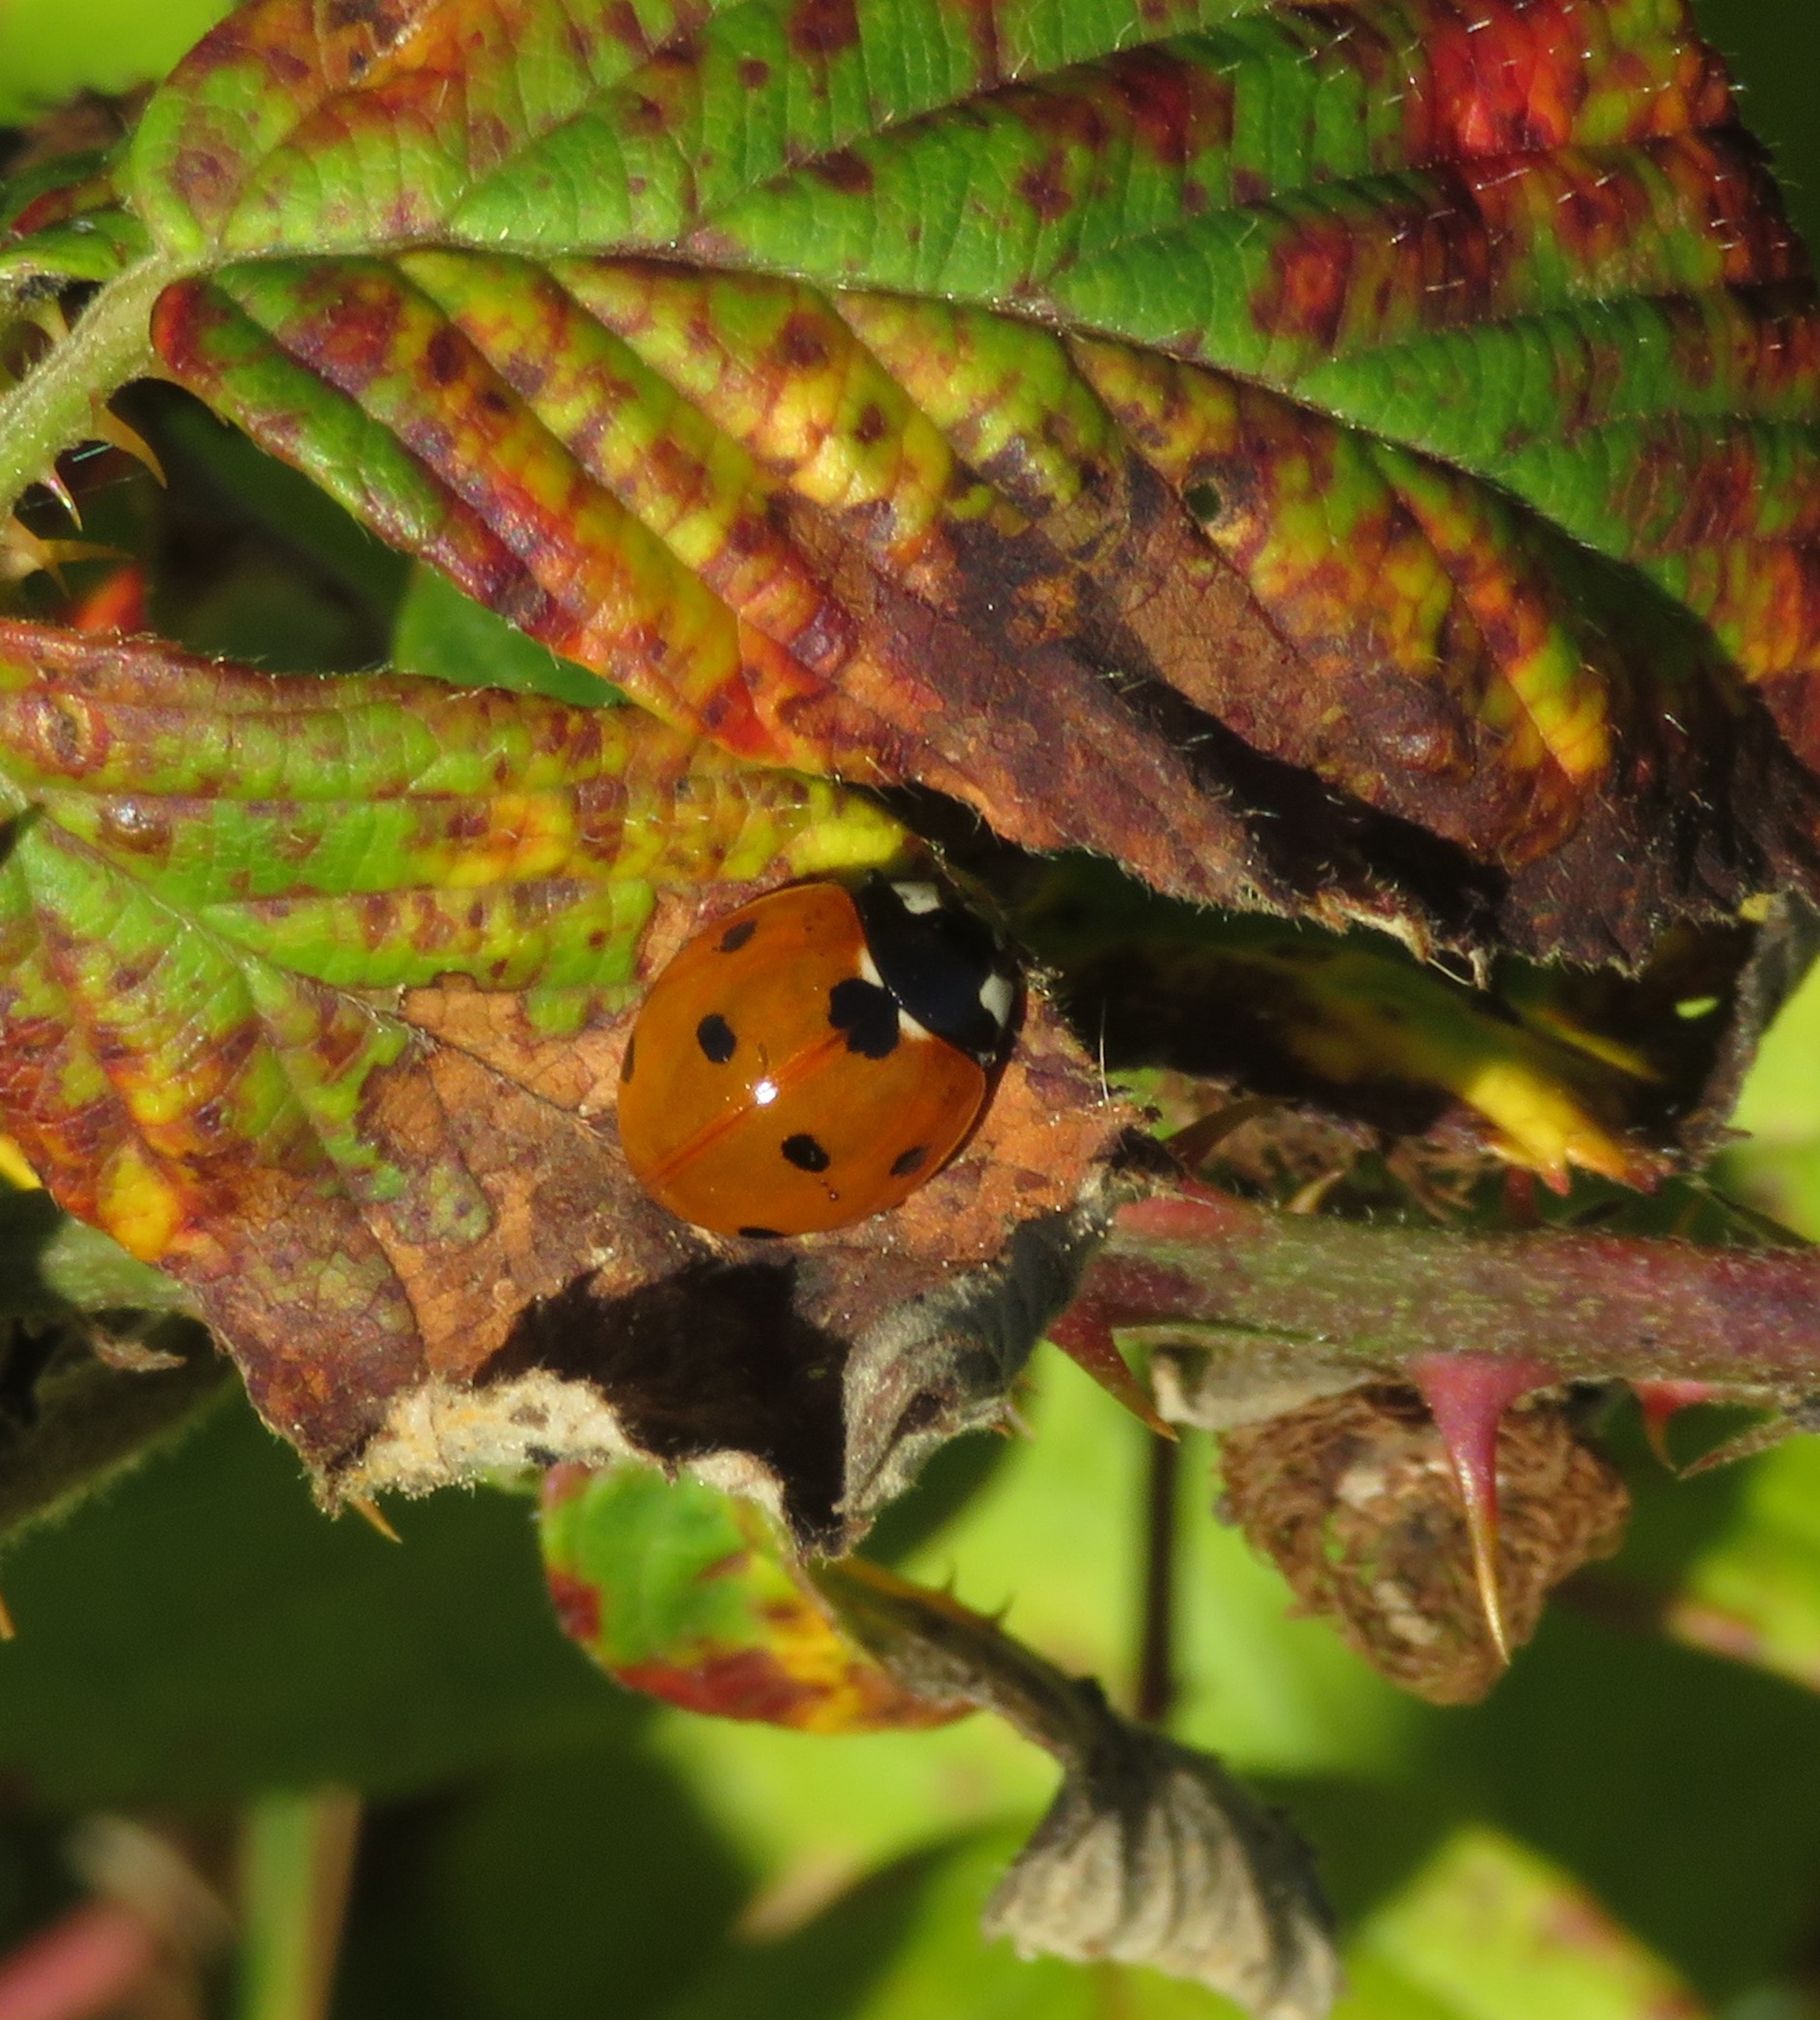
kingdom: Animalia
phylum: Arthropoda
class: Insecta
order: Coleoptera
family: Coccinellidae
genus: Coccinella
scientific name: Coccinella septempunctata
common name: Syvplettet mariehøne
